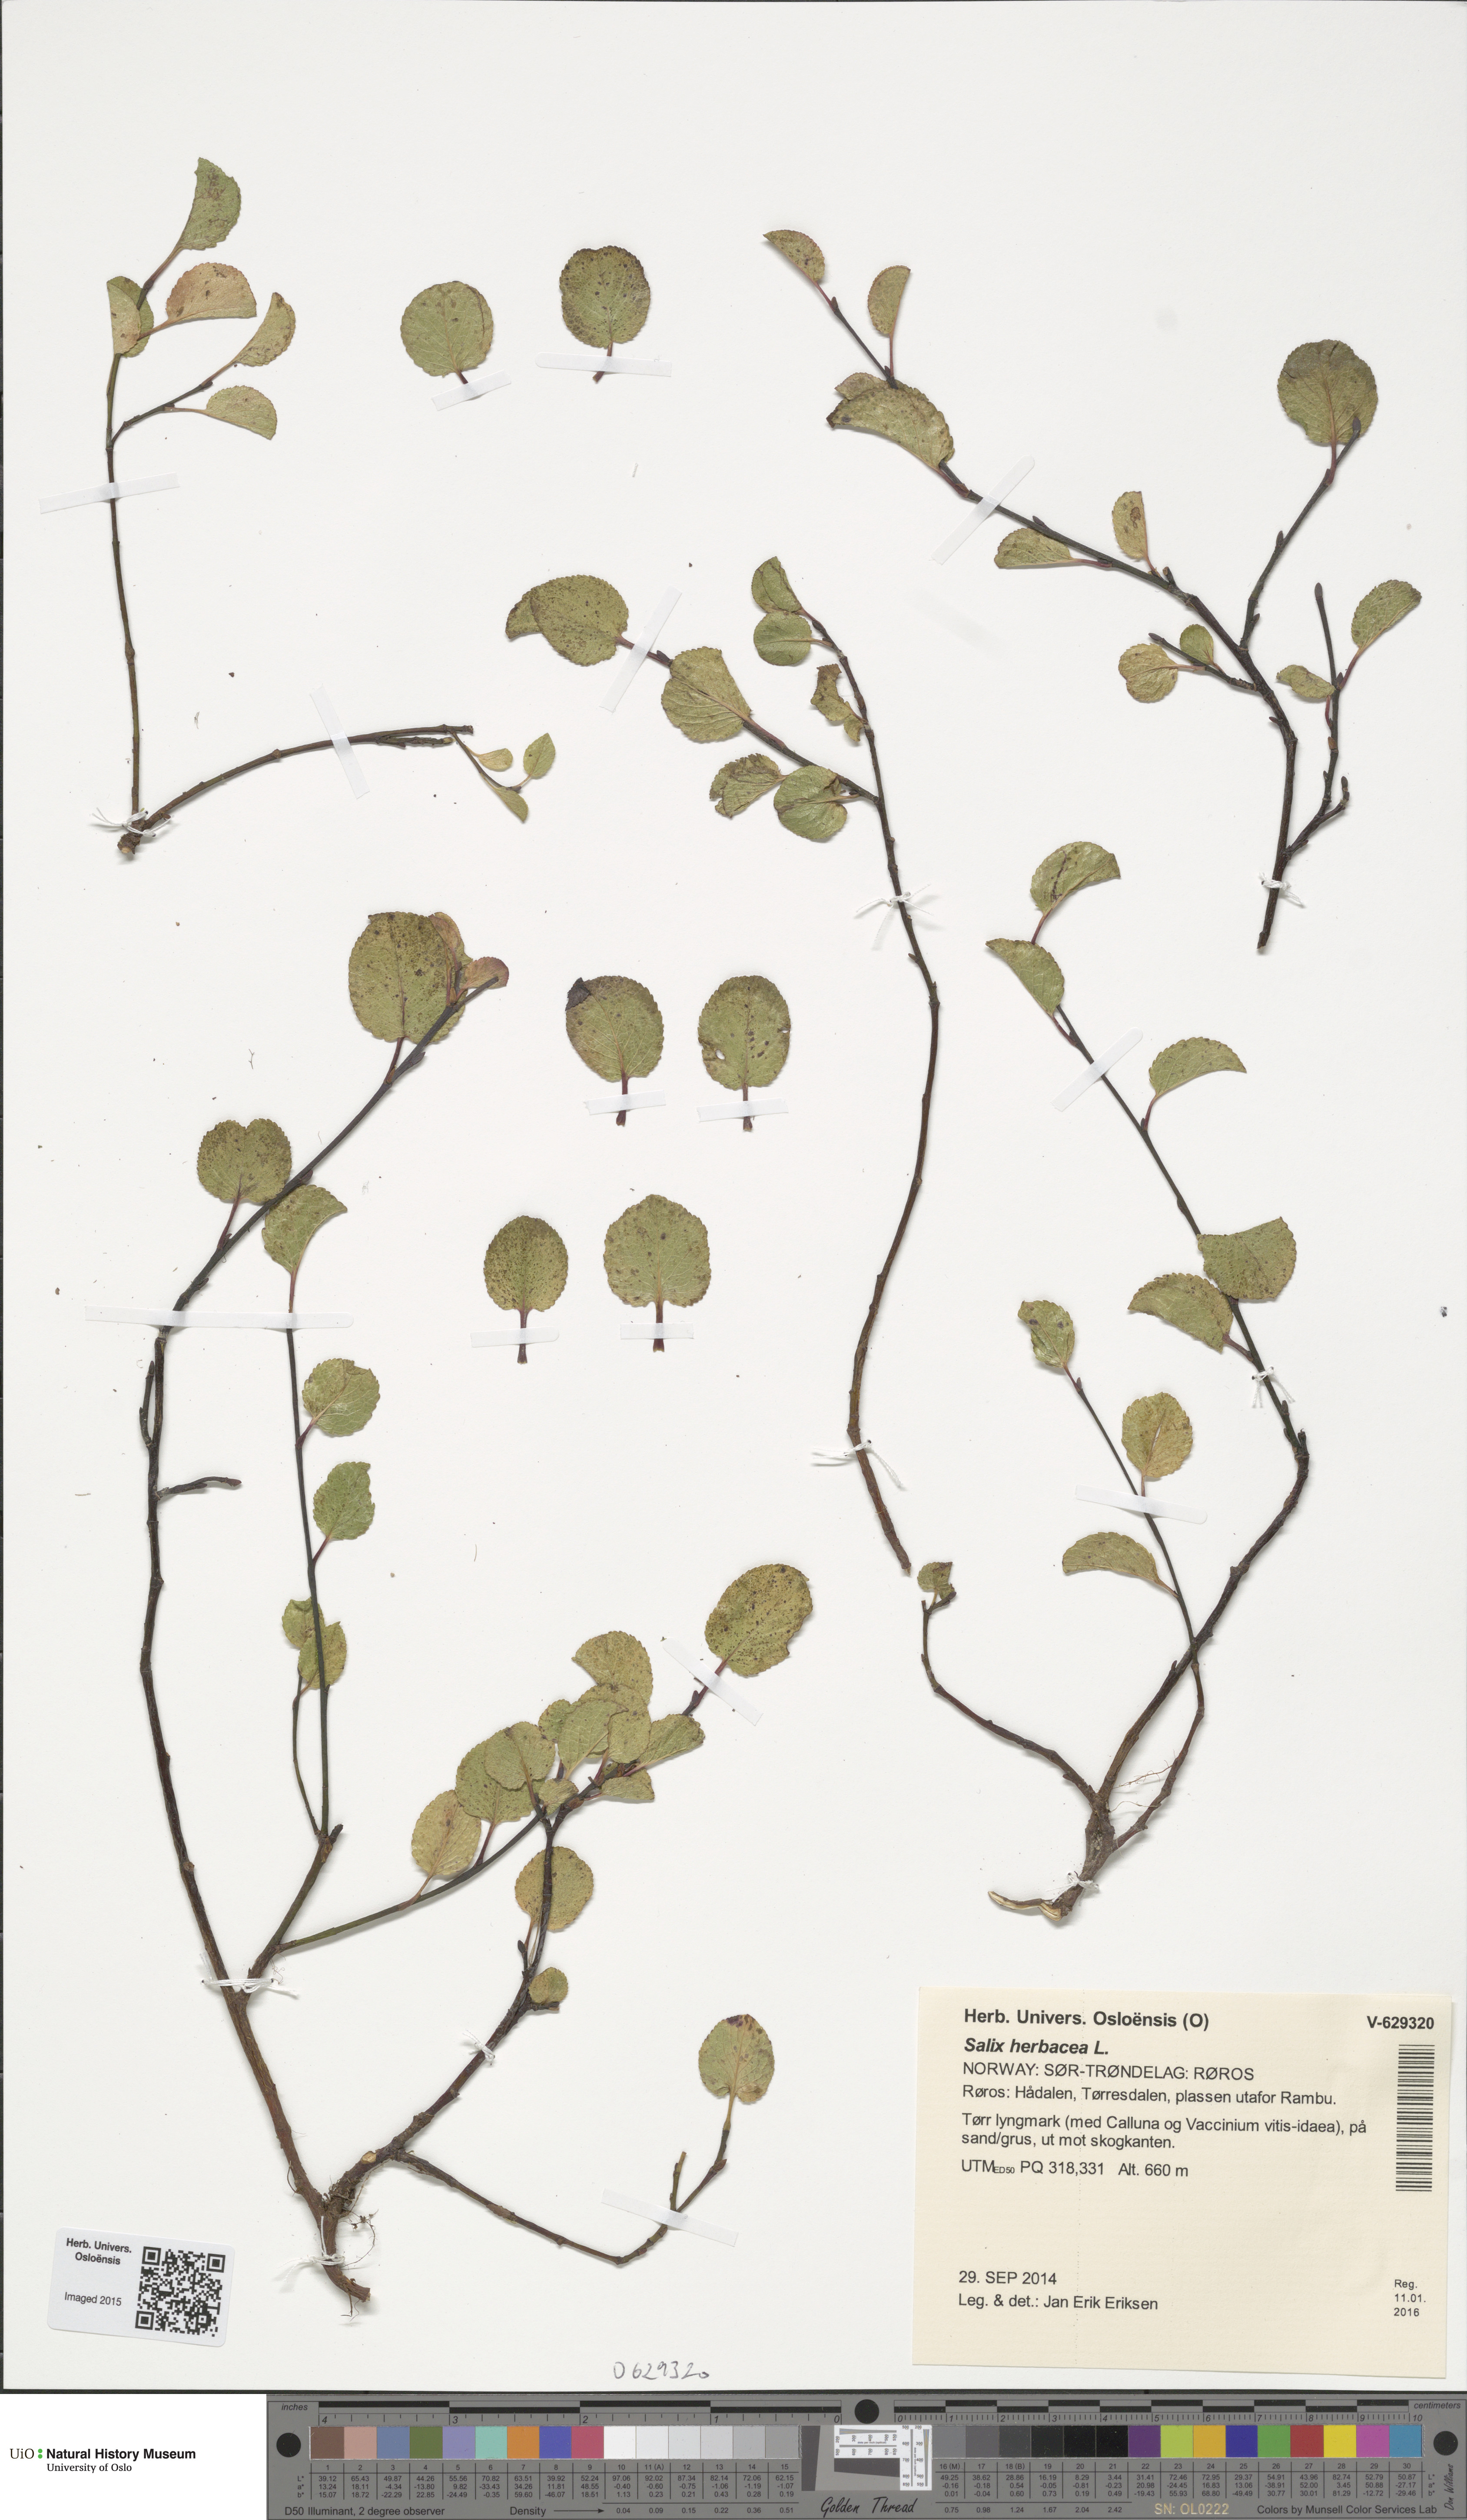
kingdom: Plantae
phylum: Tracheophyta
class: Magnoliopsida
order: Malpighiales
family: Salicaceae
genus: Salix
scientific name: Salix herbacea
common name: Dwarf willow
